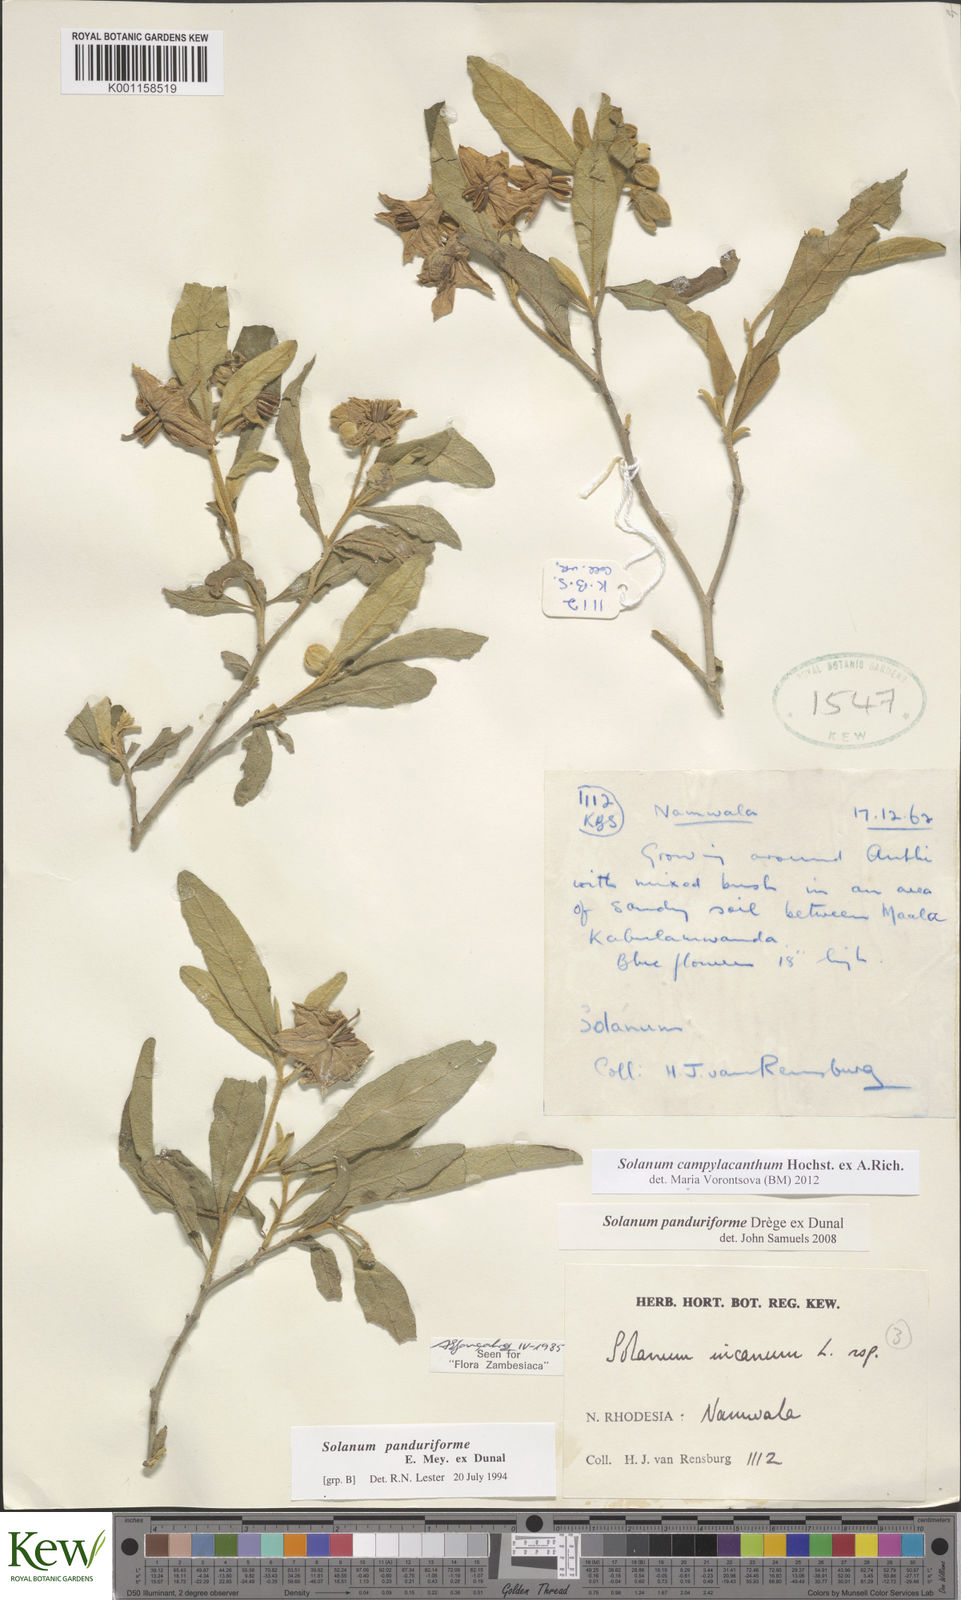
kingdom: Plantae
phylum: Tracheophyta
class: Magnoliopsida
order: Solanales
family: Solanaceae
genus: Solanum
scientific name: Solanum campylacanthum
